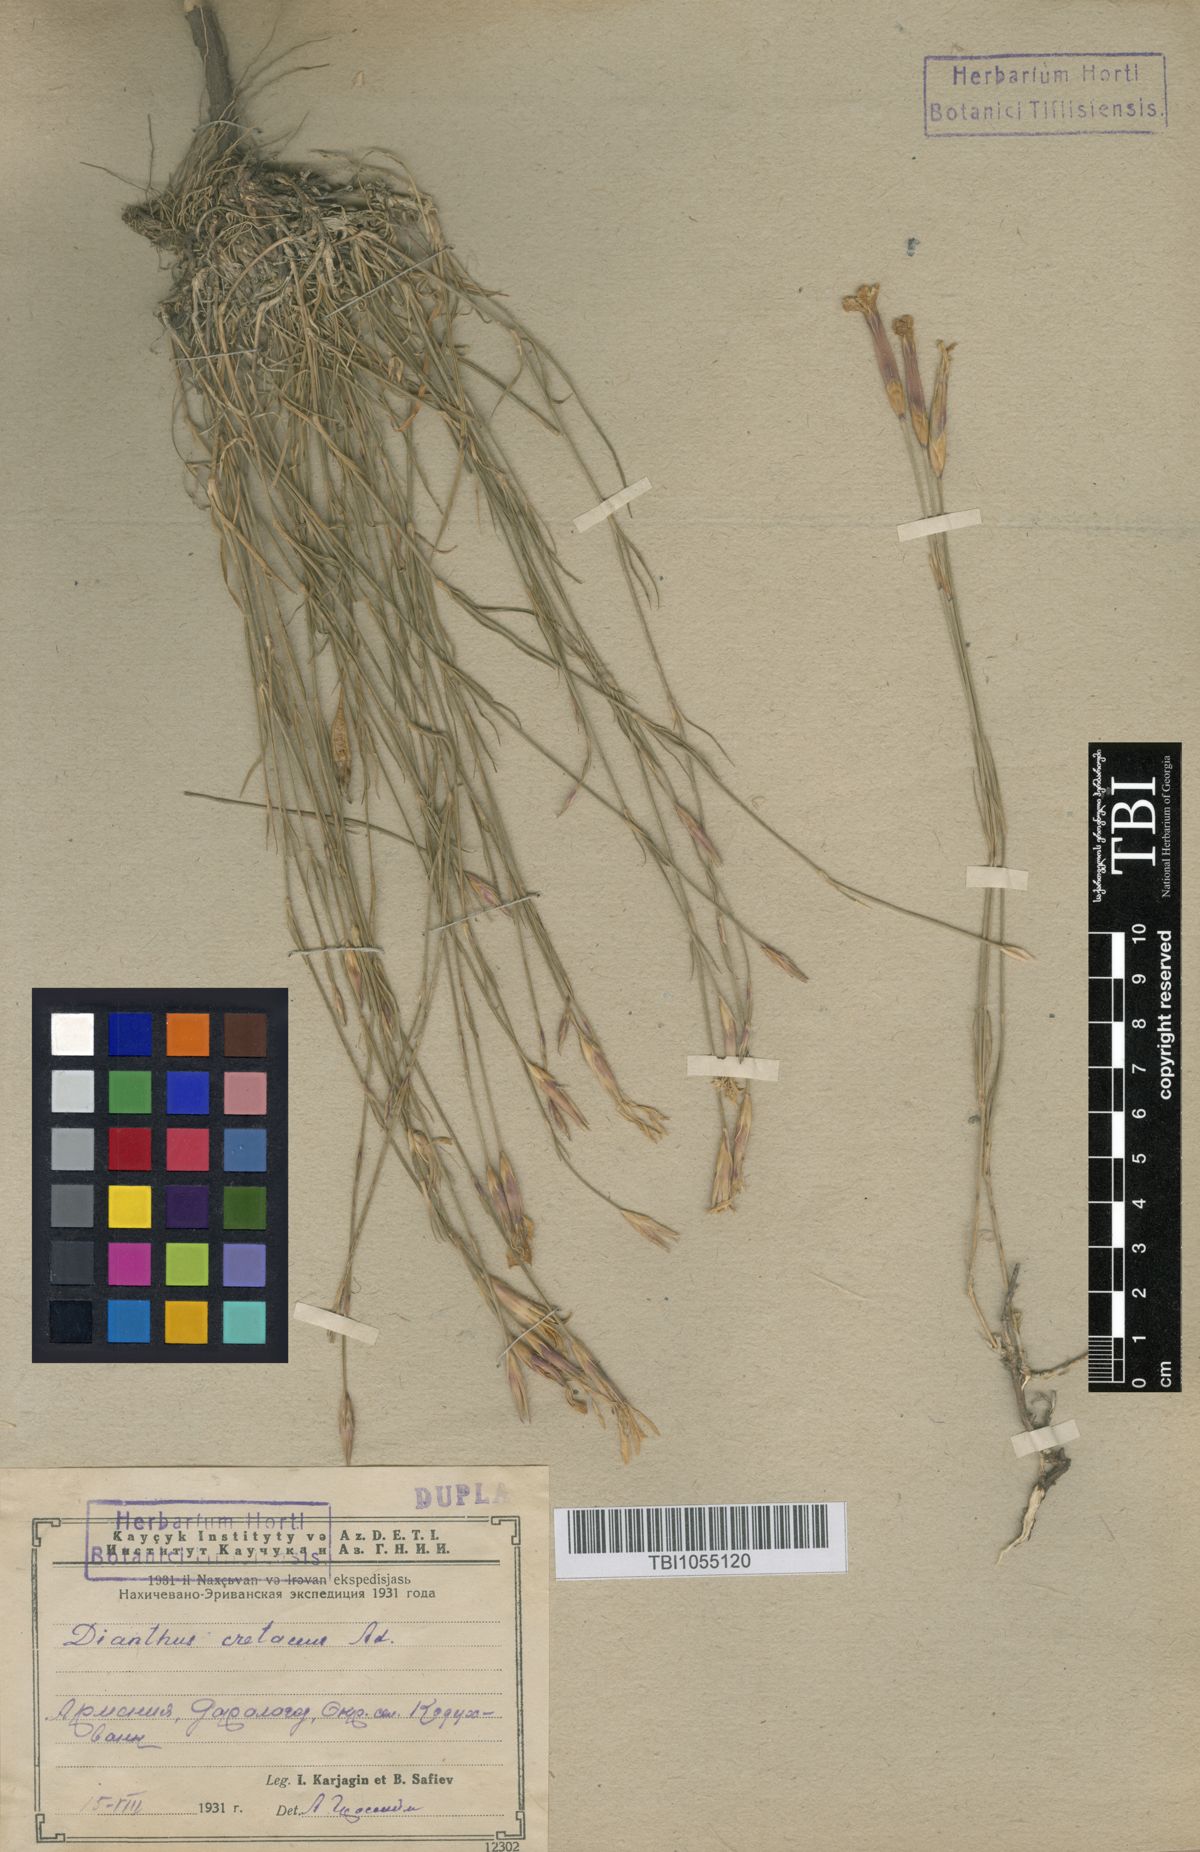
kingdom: Plantae
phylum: Tracheophyta
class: Magnoliopsida
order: Caryophyllales
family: Caryophyllaceae
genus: Dianthus
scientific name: Dianthus cretaceus
